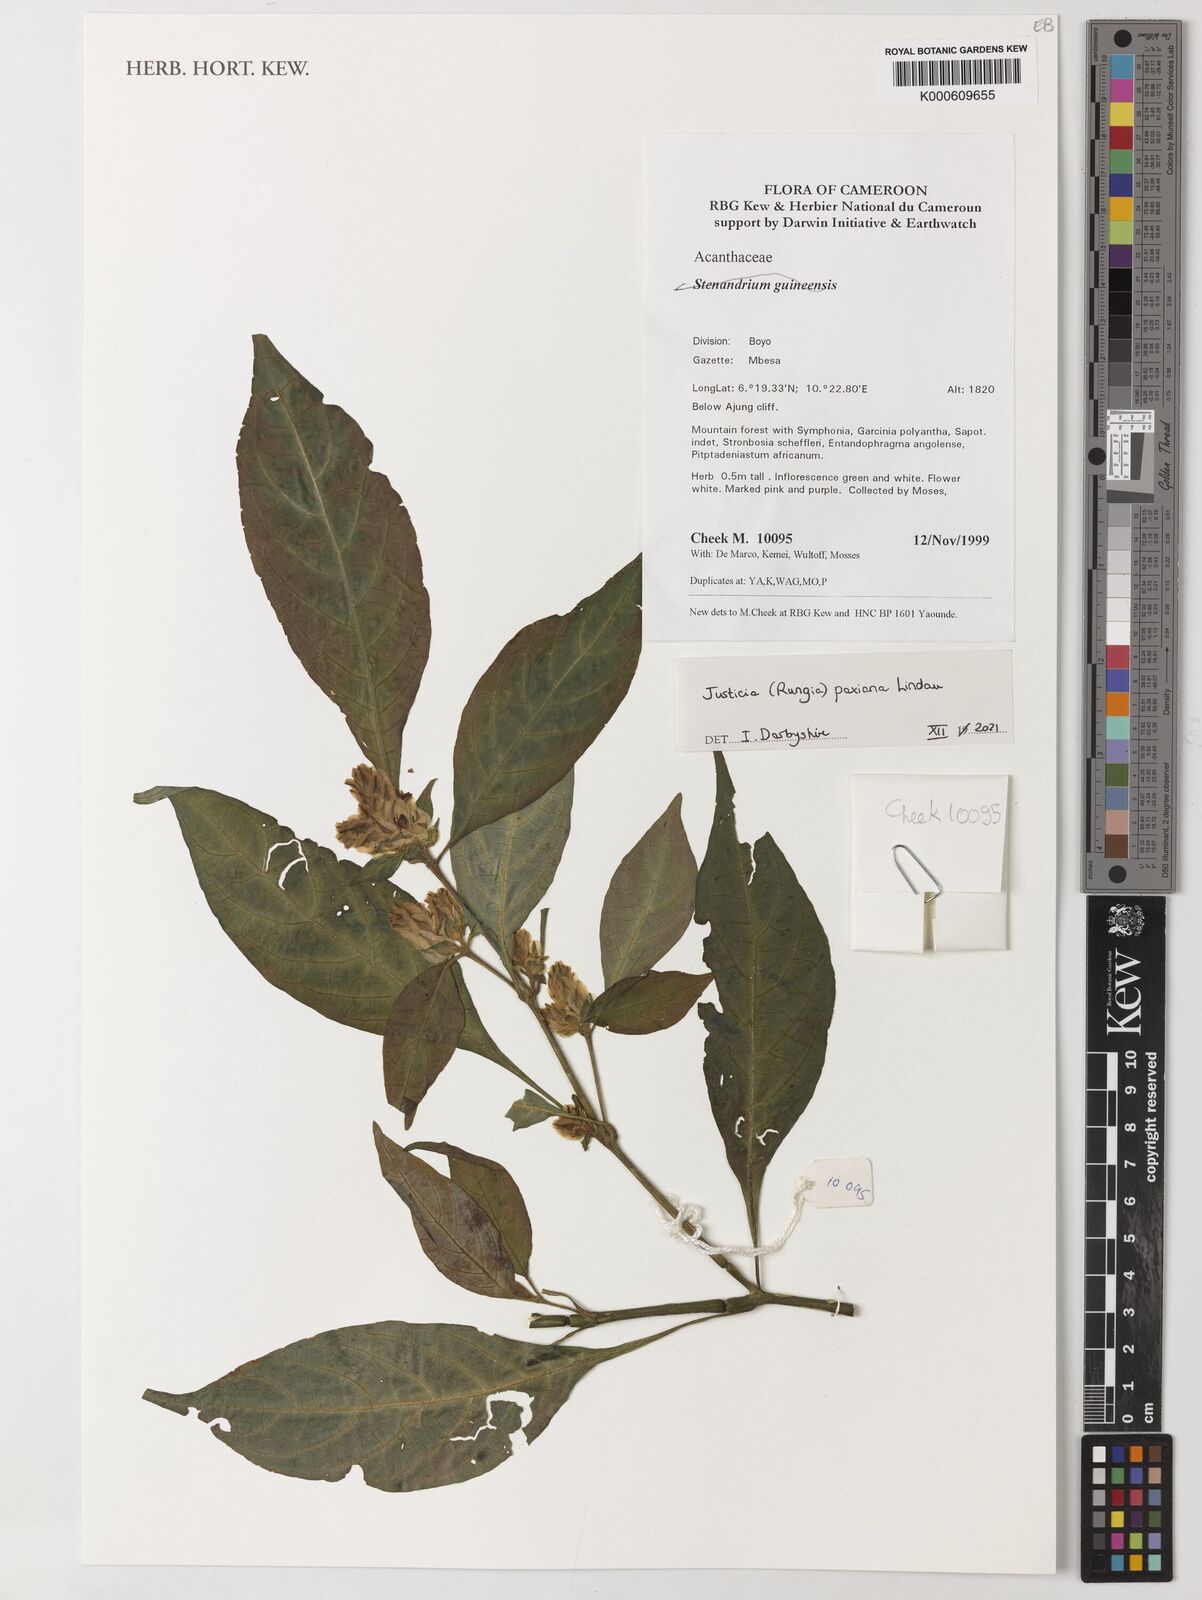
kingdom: Plantae
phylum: Tracheophyta
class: Magnoliopsida
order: Lamiales
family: Acanthaceae
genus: Rungia
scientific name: Rungia paxiana
